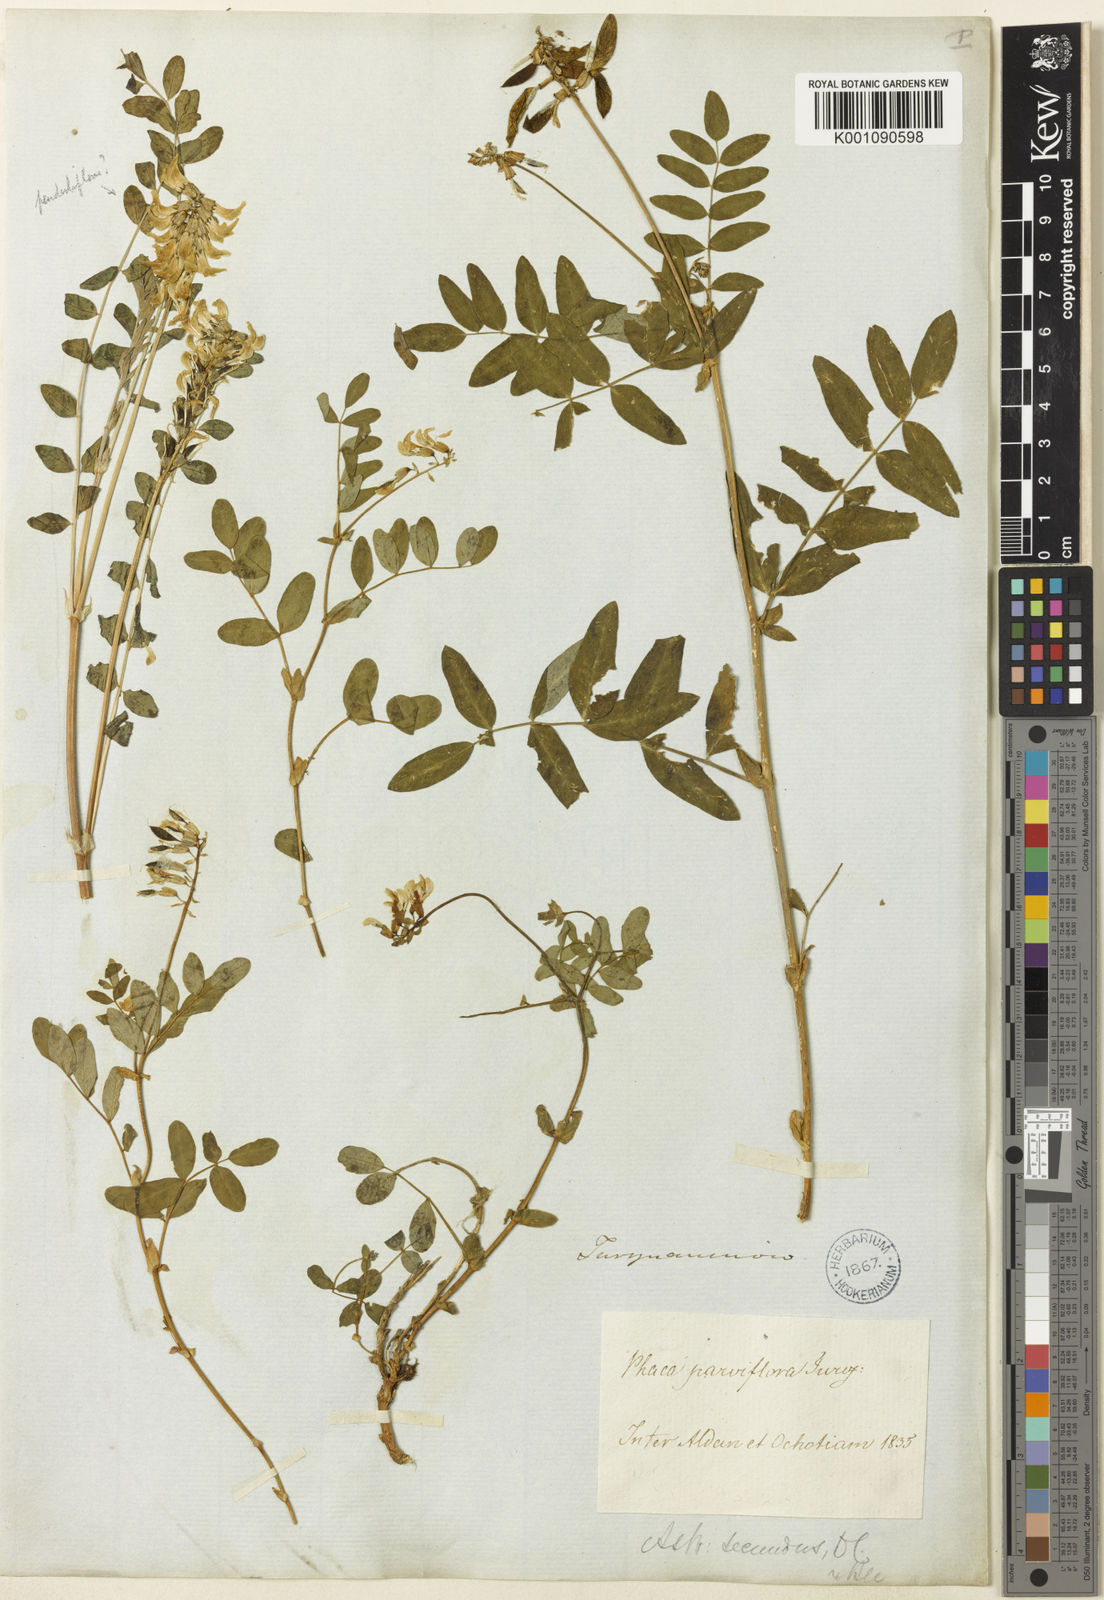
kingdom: Plantae
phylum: Tracheophyta
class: Magnoliopsida
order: Fabales
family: Fabaceae
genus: Astragalus
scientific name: Astragalus
